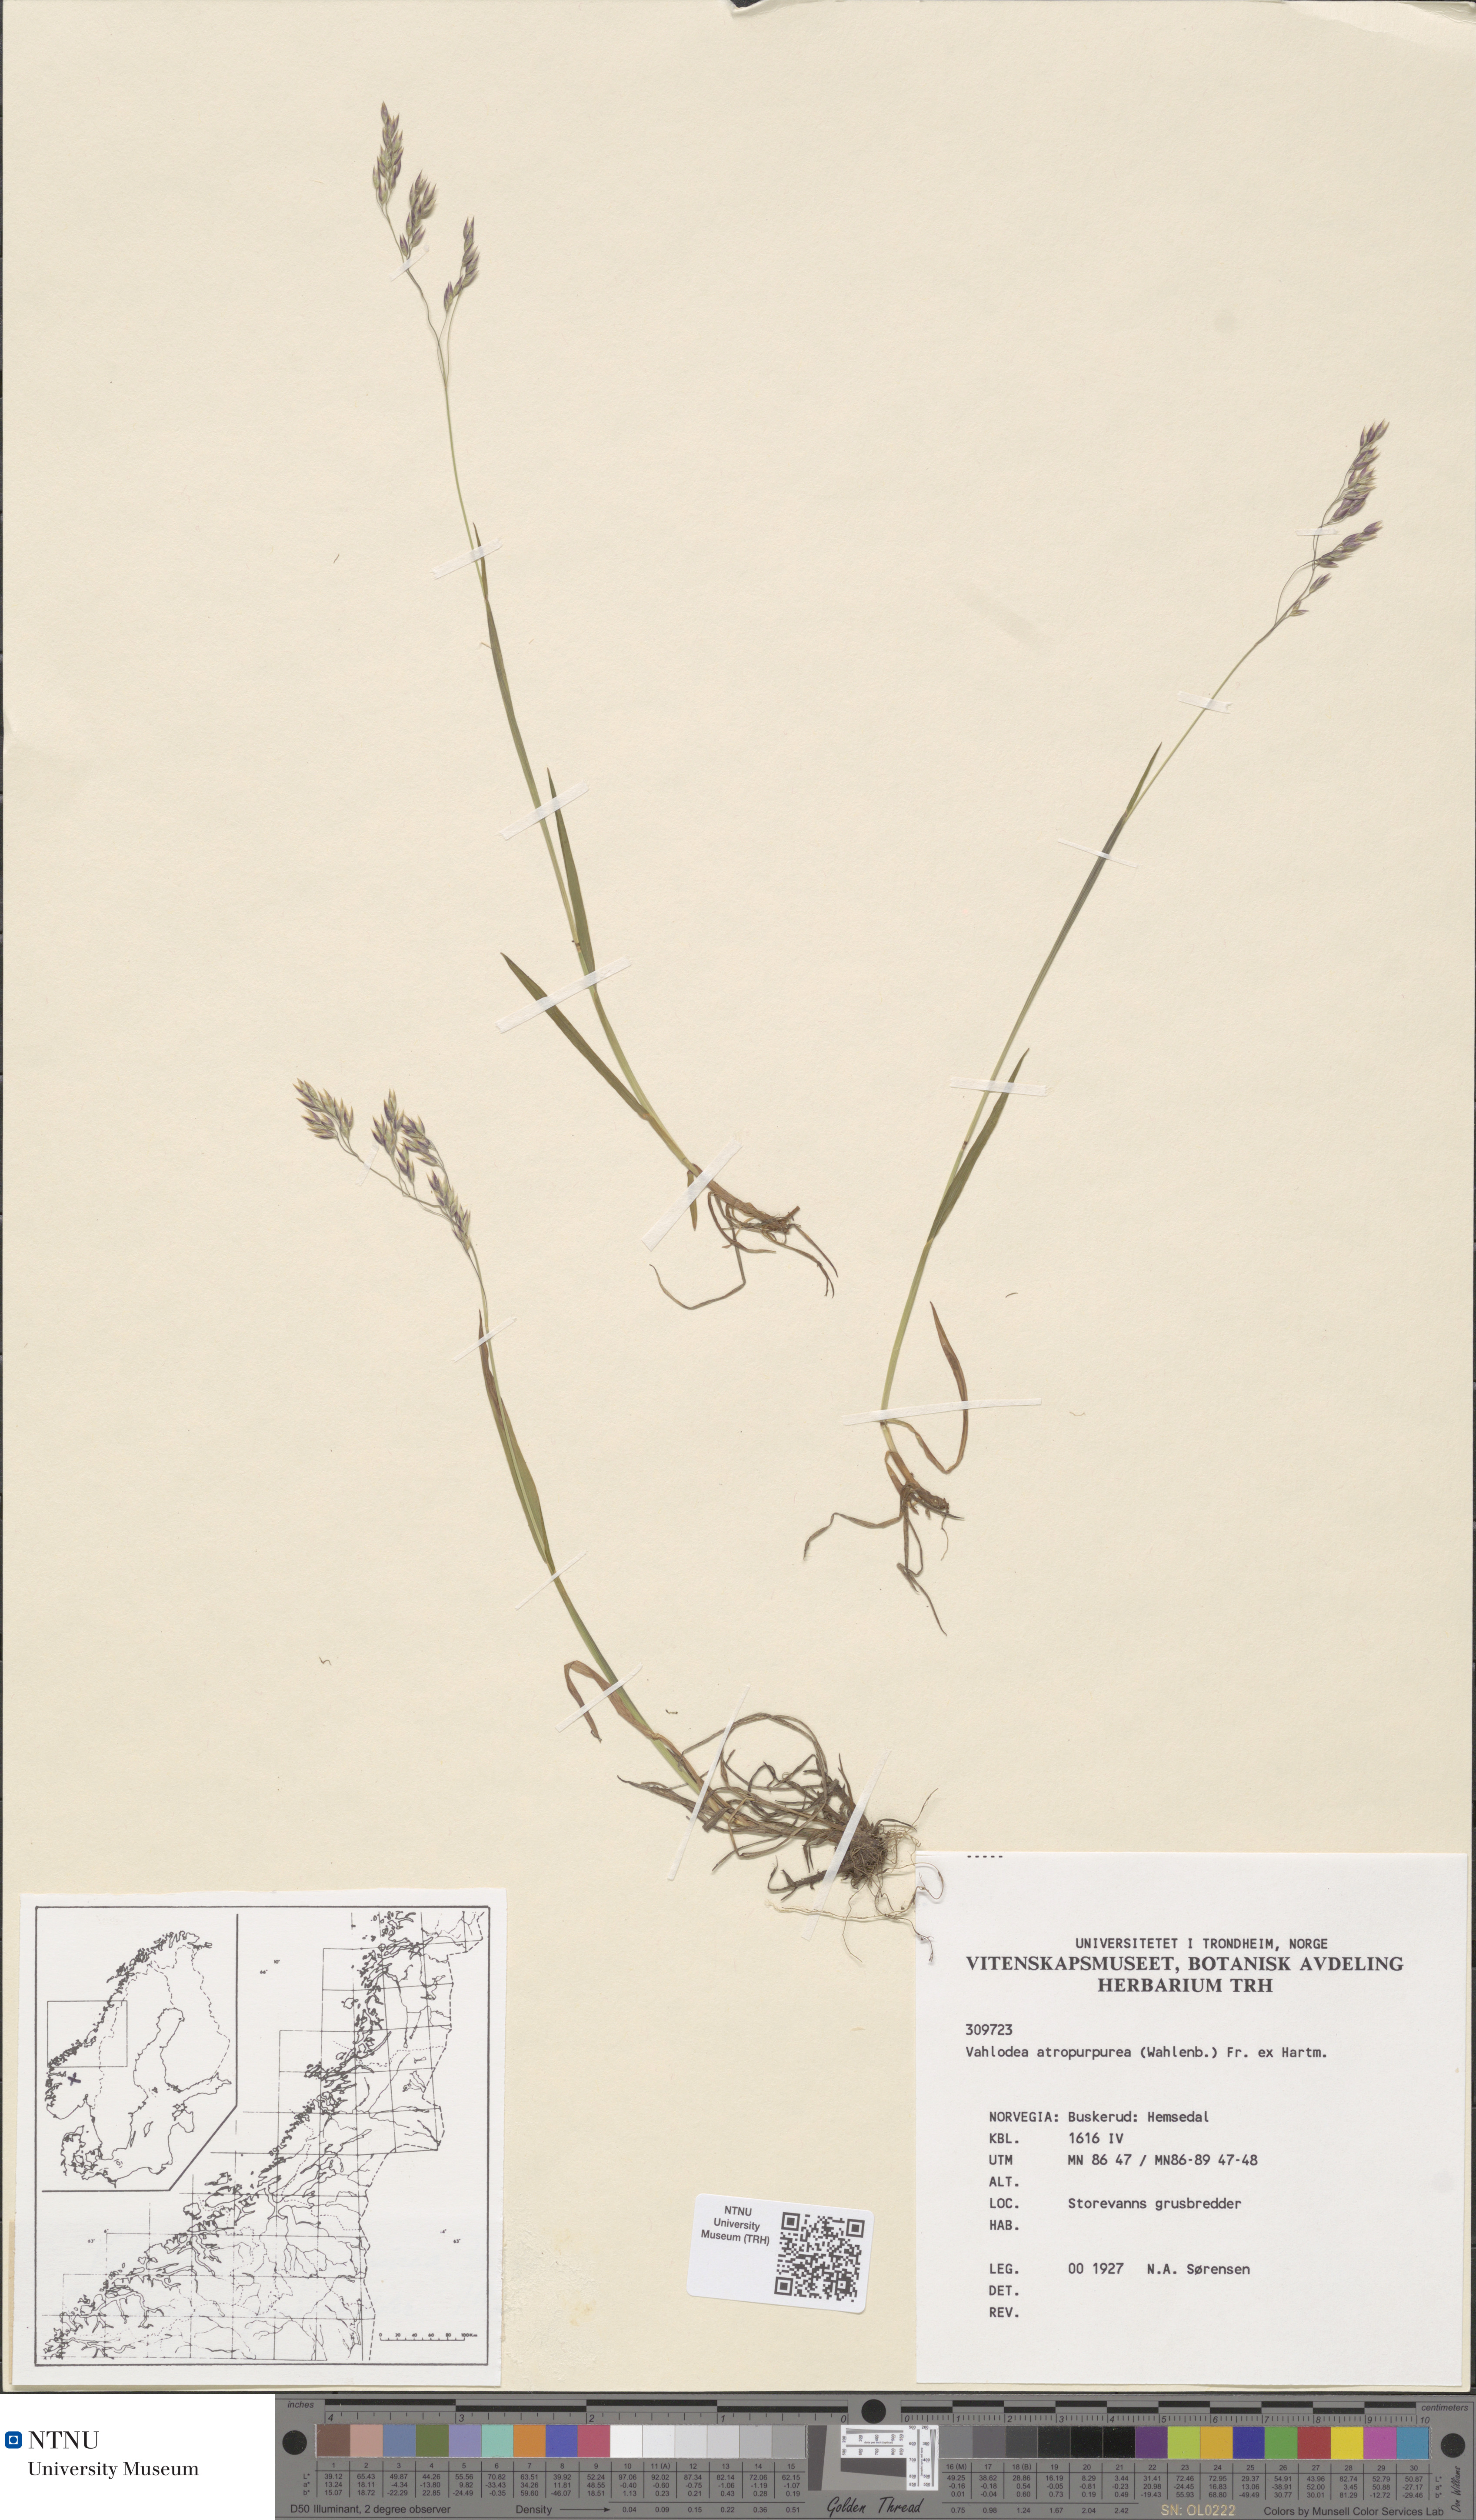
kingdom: Plantae
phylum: Tracheophyta
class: Liliopsida
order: Poales
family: Poaceae
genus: Vahlodea
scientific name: Vahlodea atropurpurea
